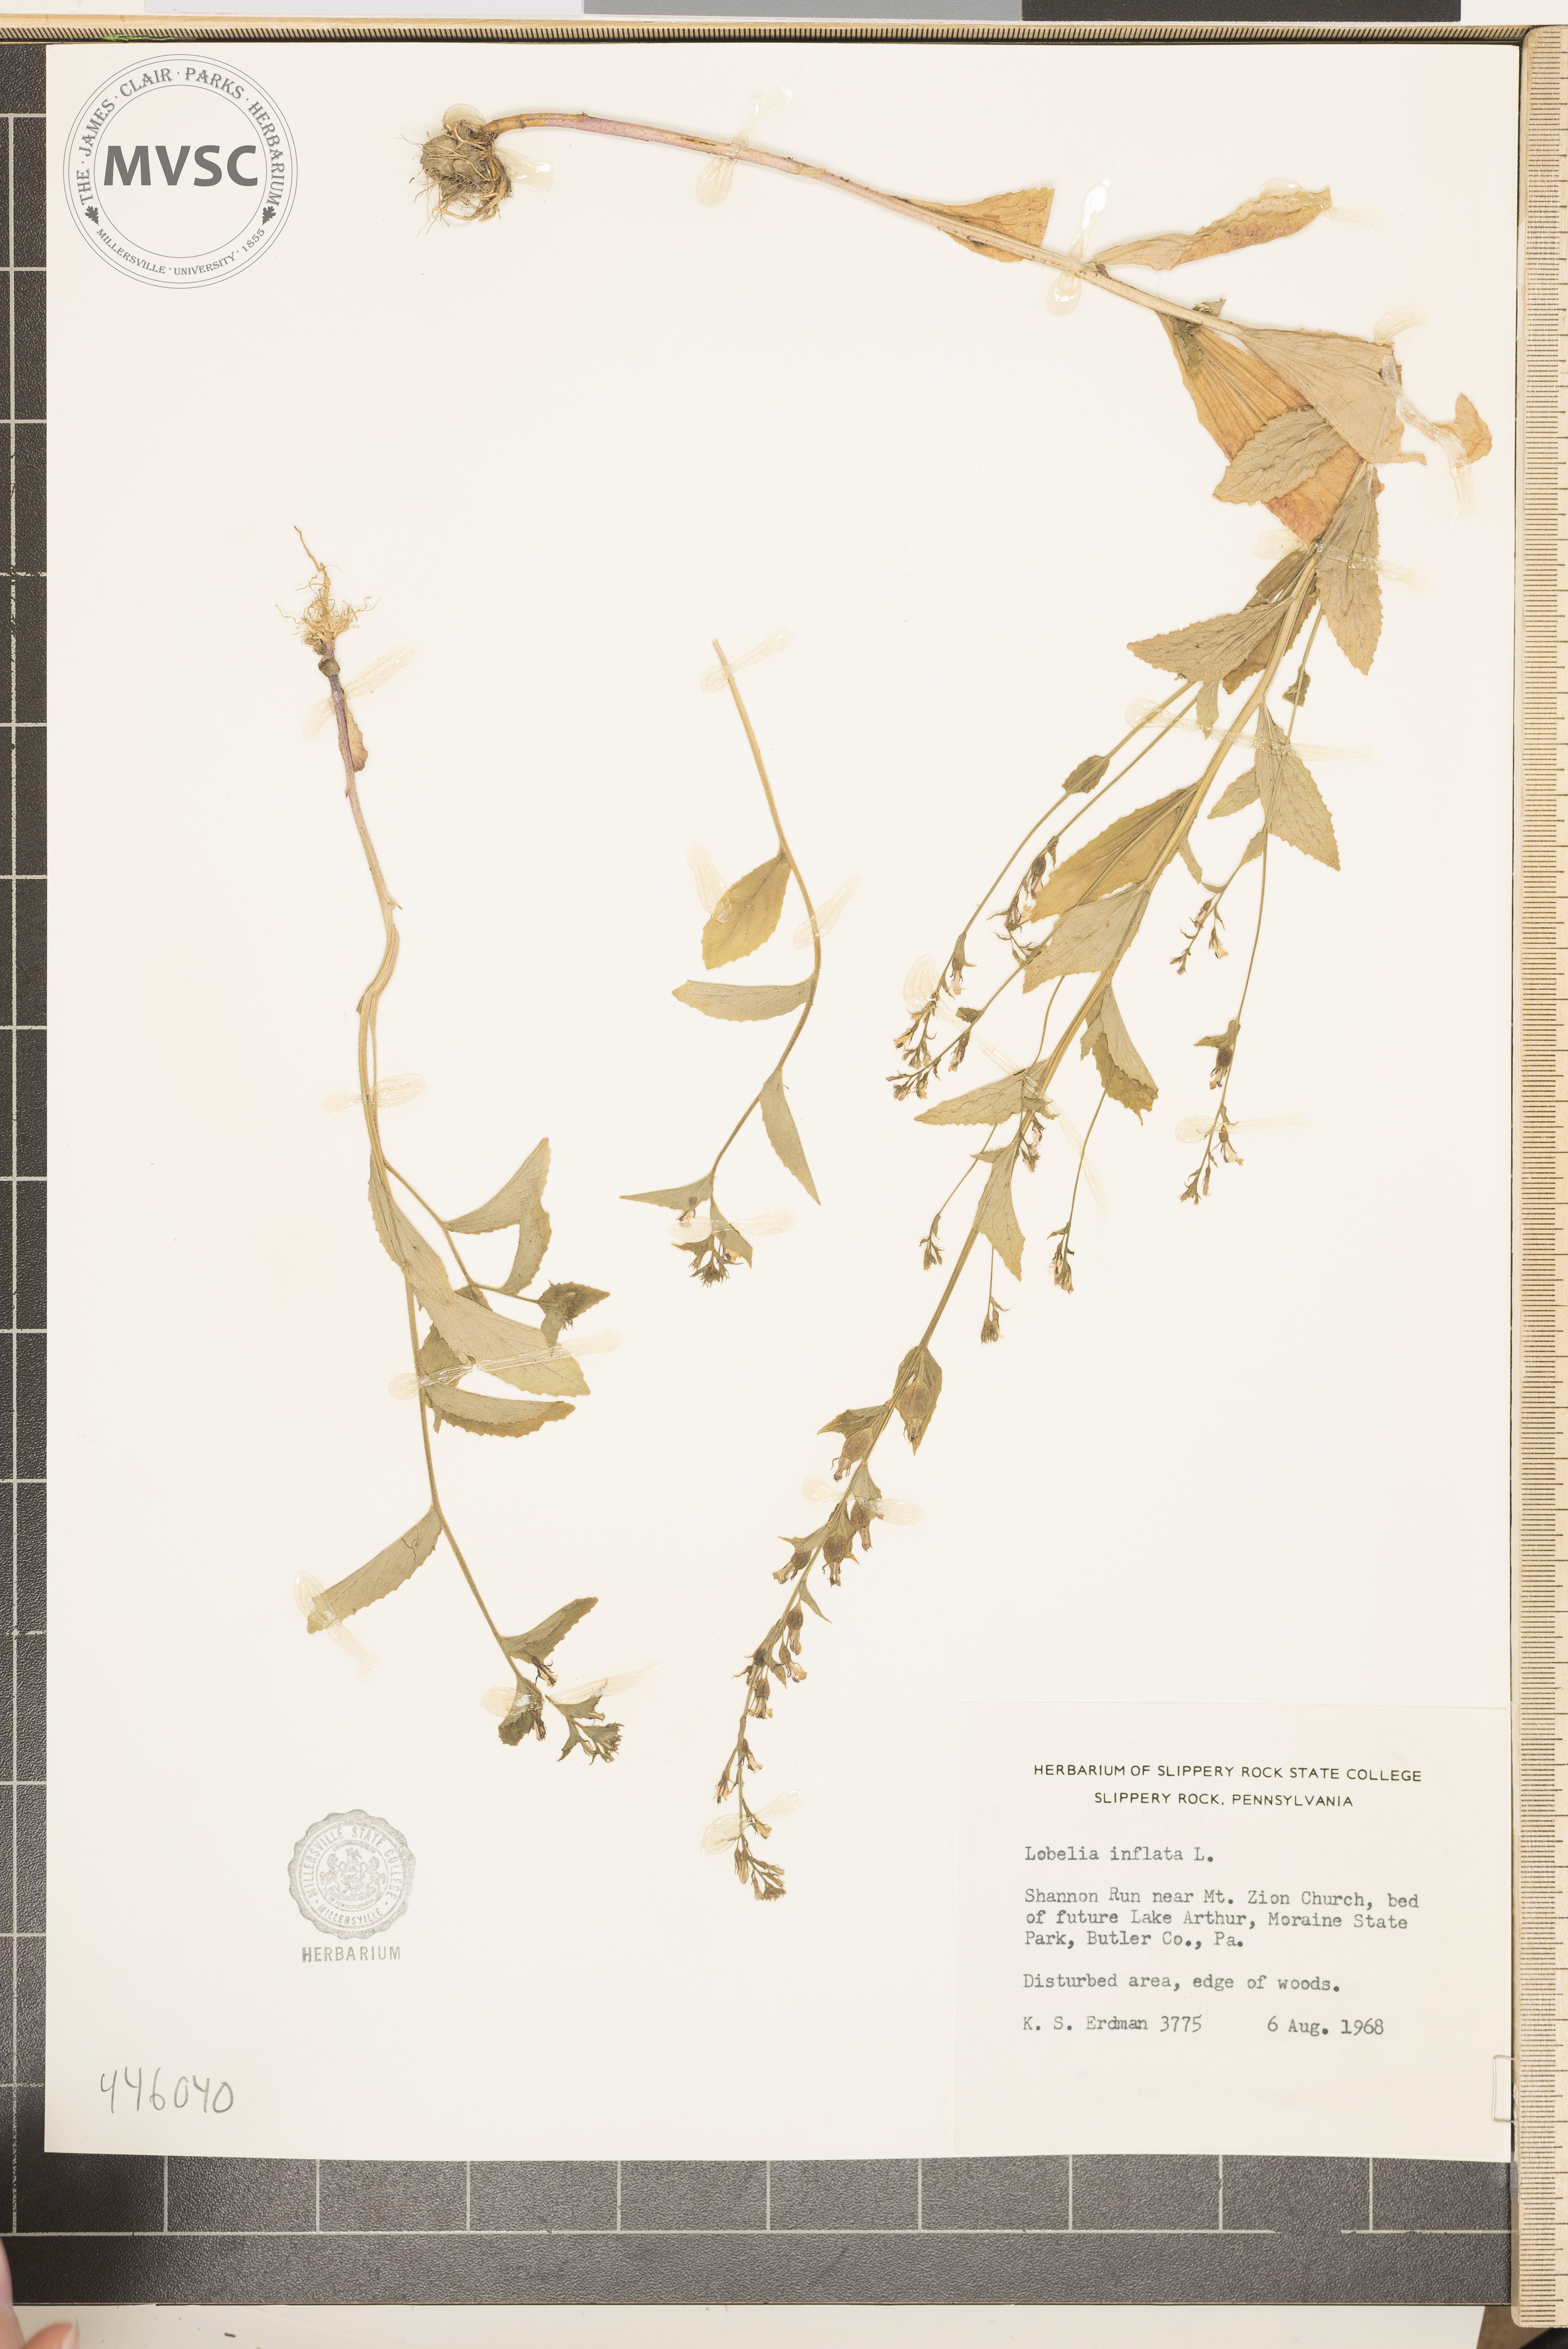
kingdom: Plantae
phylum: Tracheophyta
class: Magnoliopsida
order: Asterales
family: Campanulaceae
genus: Lobelia
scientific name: Lobelia inflata
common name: Indian tobacco
